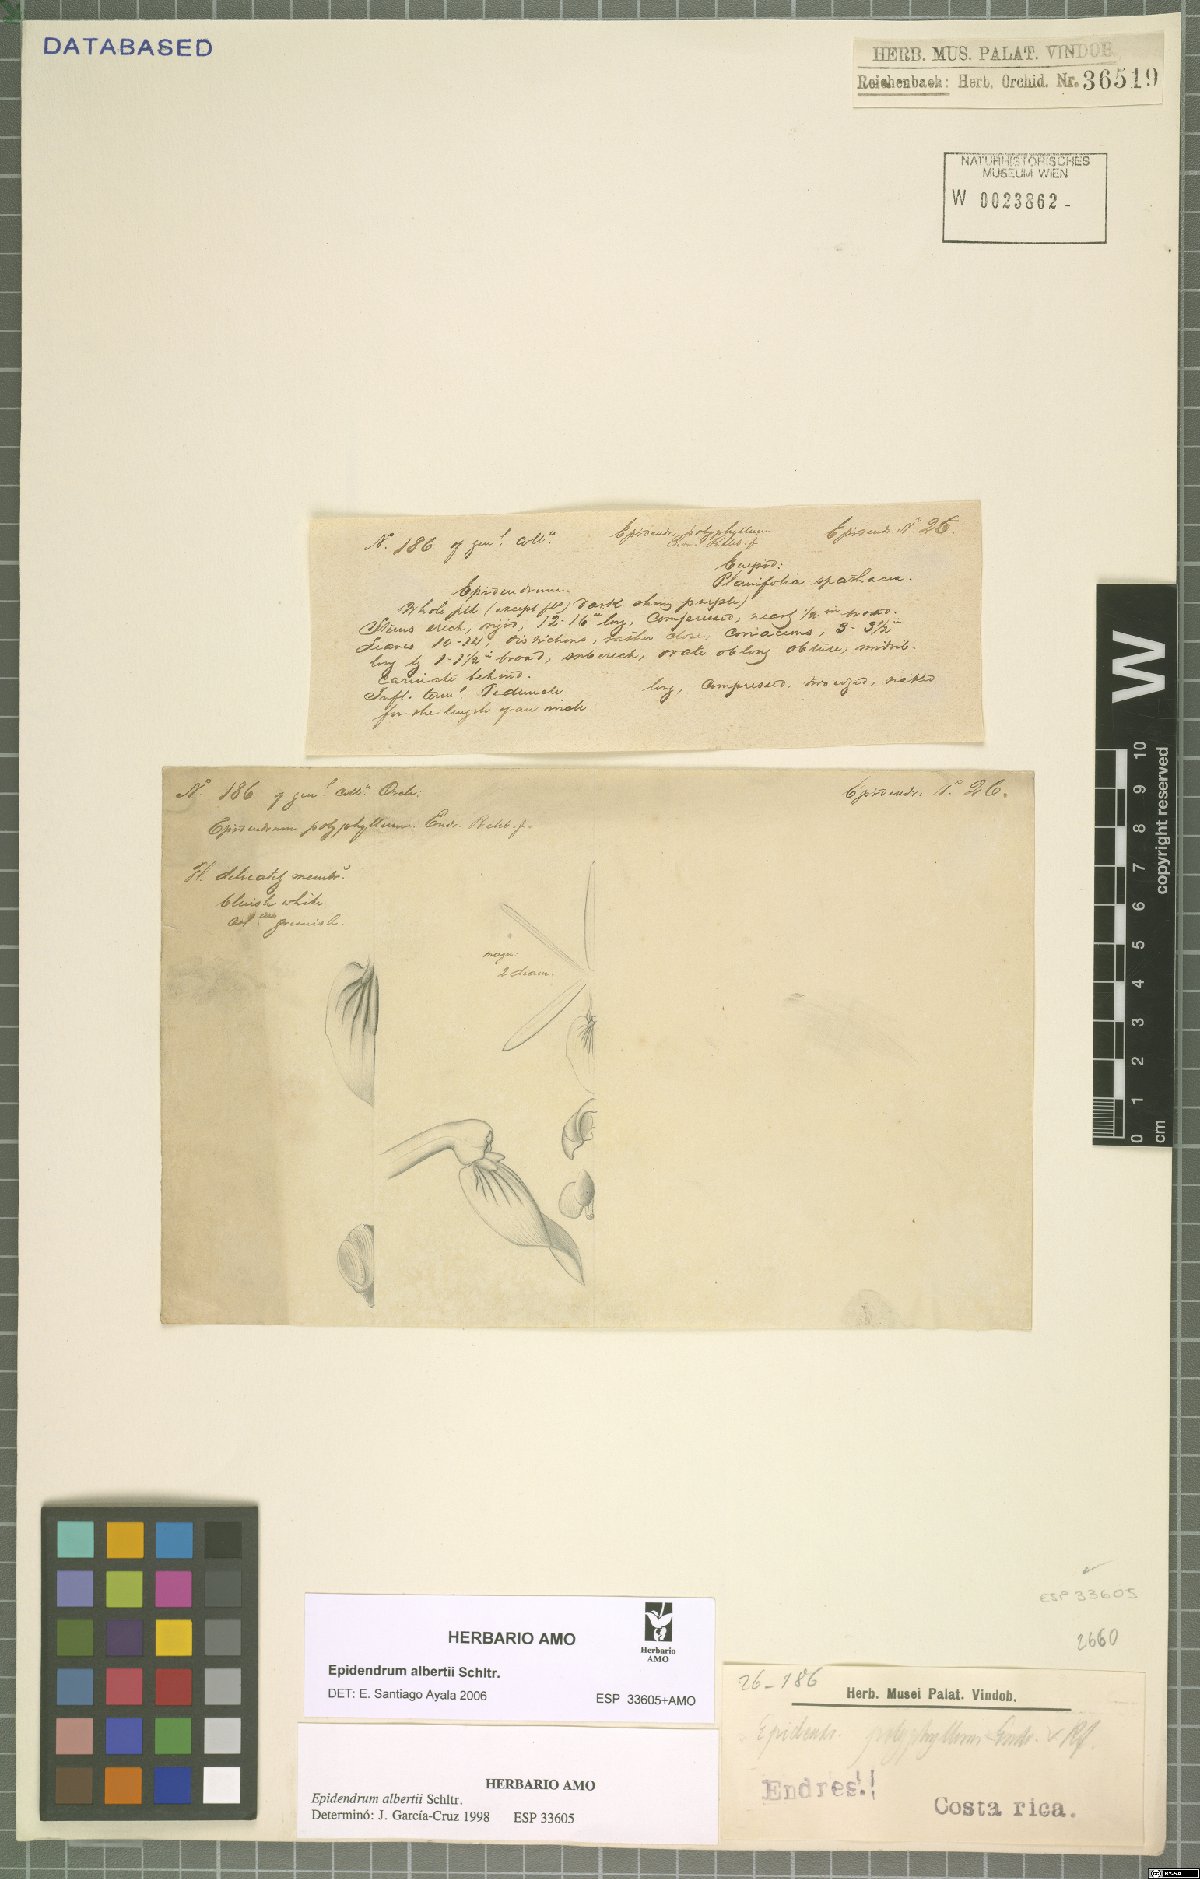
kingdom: Plantae
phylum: Tracheophyta
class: Liliopsida
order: Asparagales
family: Orchidaceae
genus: Epidendrum
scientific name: Epidendrum alberti
